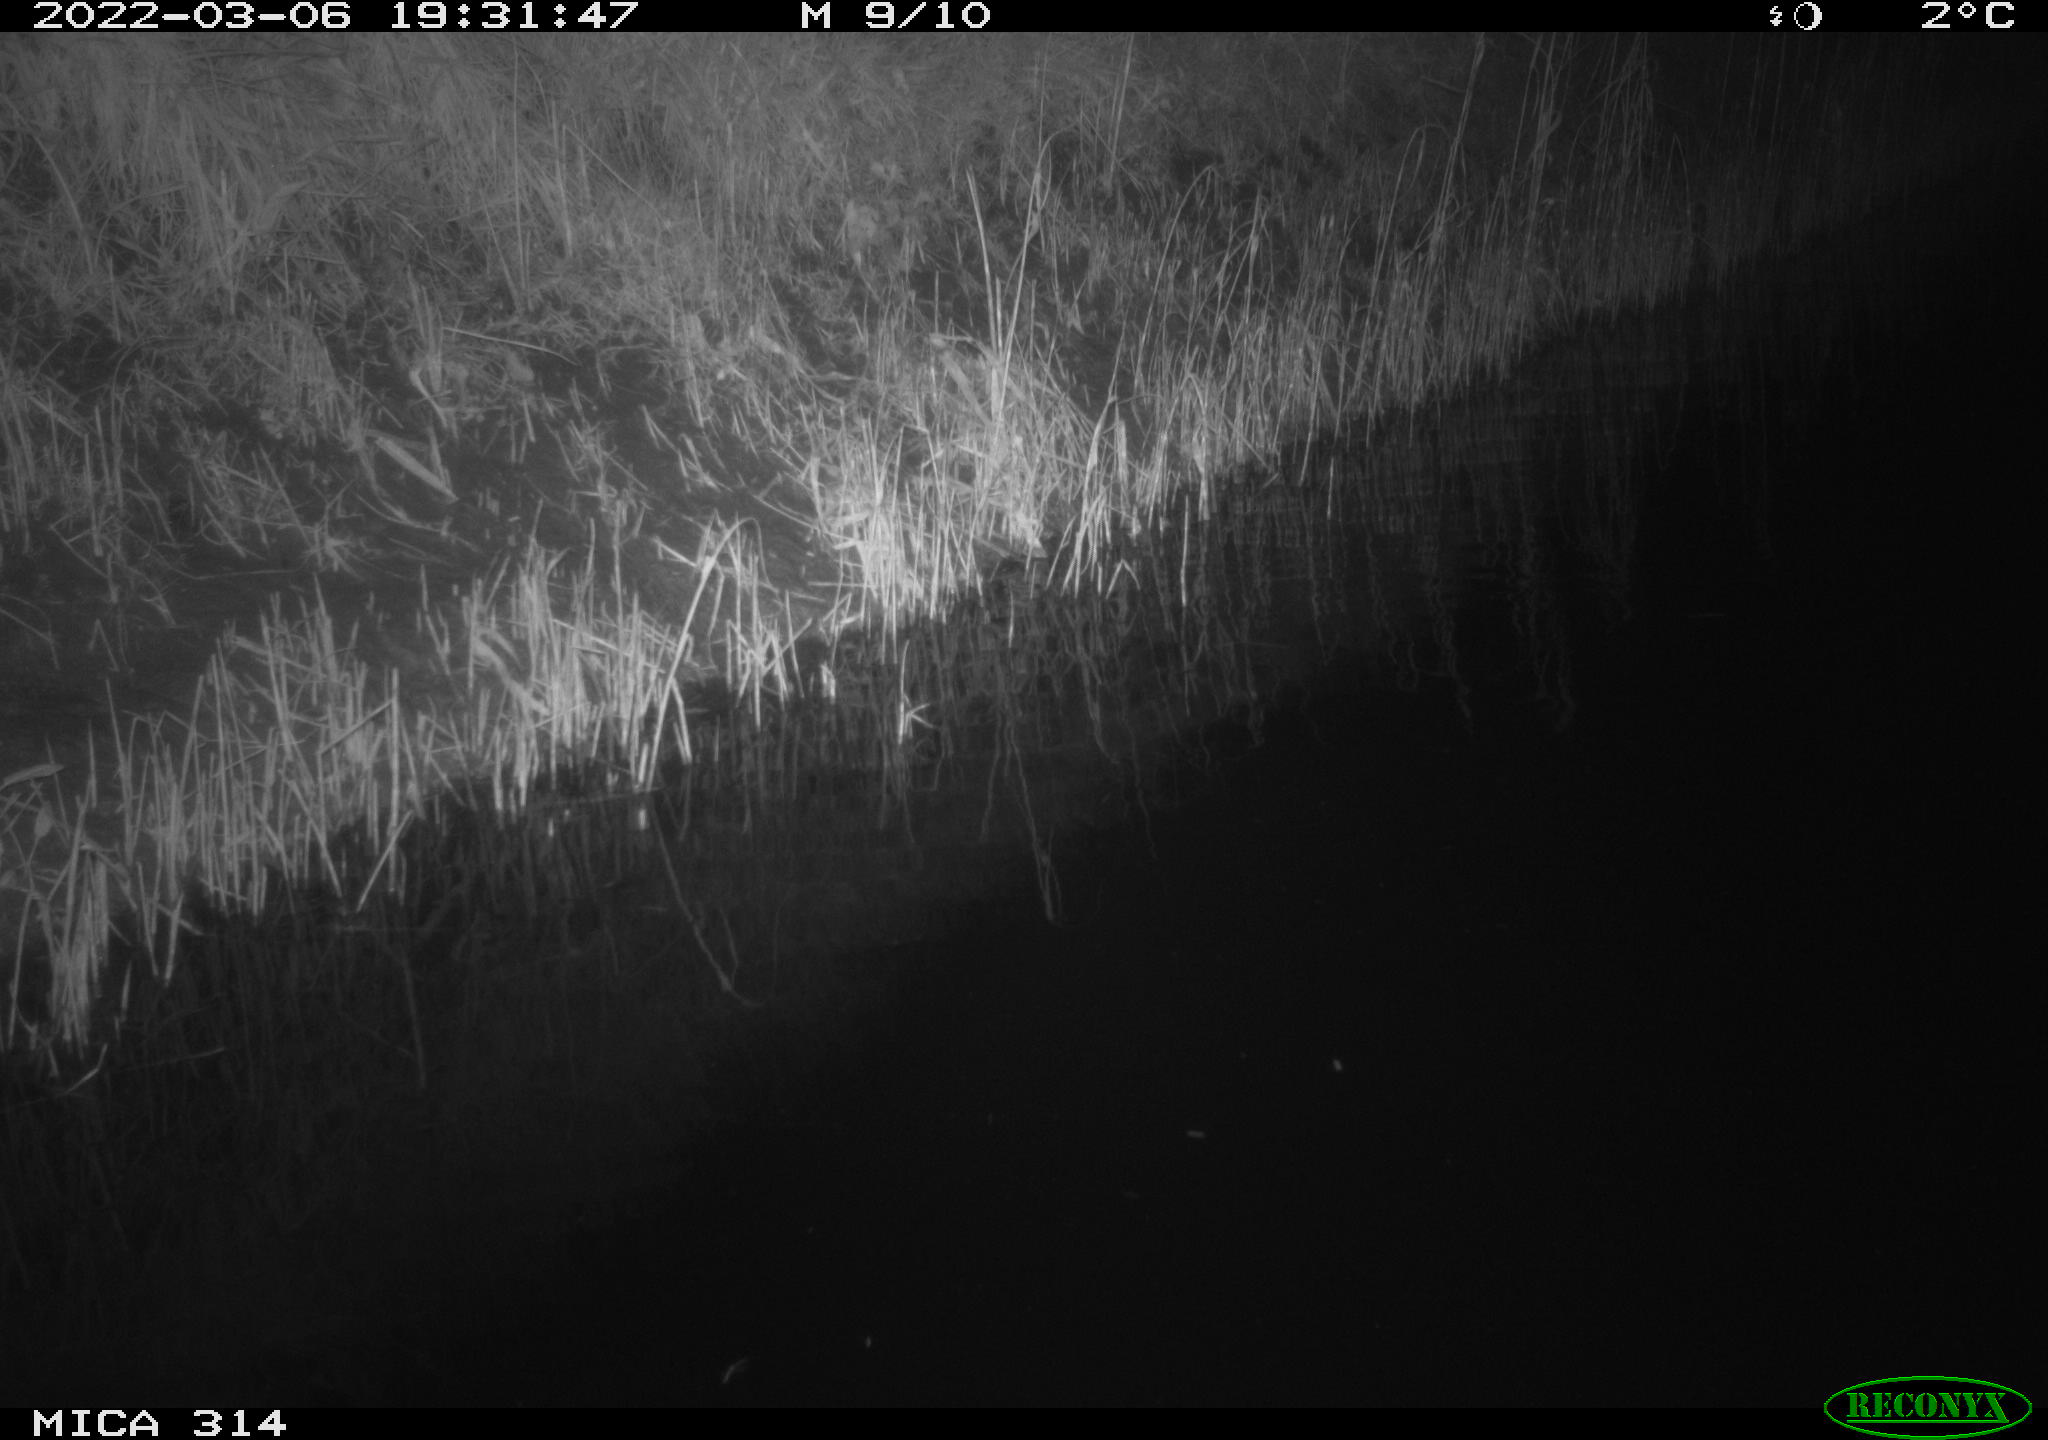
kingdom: Animalia
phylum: Chordata
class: Mammalia
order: Rodentia
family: Muridae
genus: Rattus
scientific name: Rattus norvegicus
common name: Brown rat
